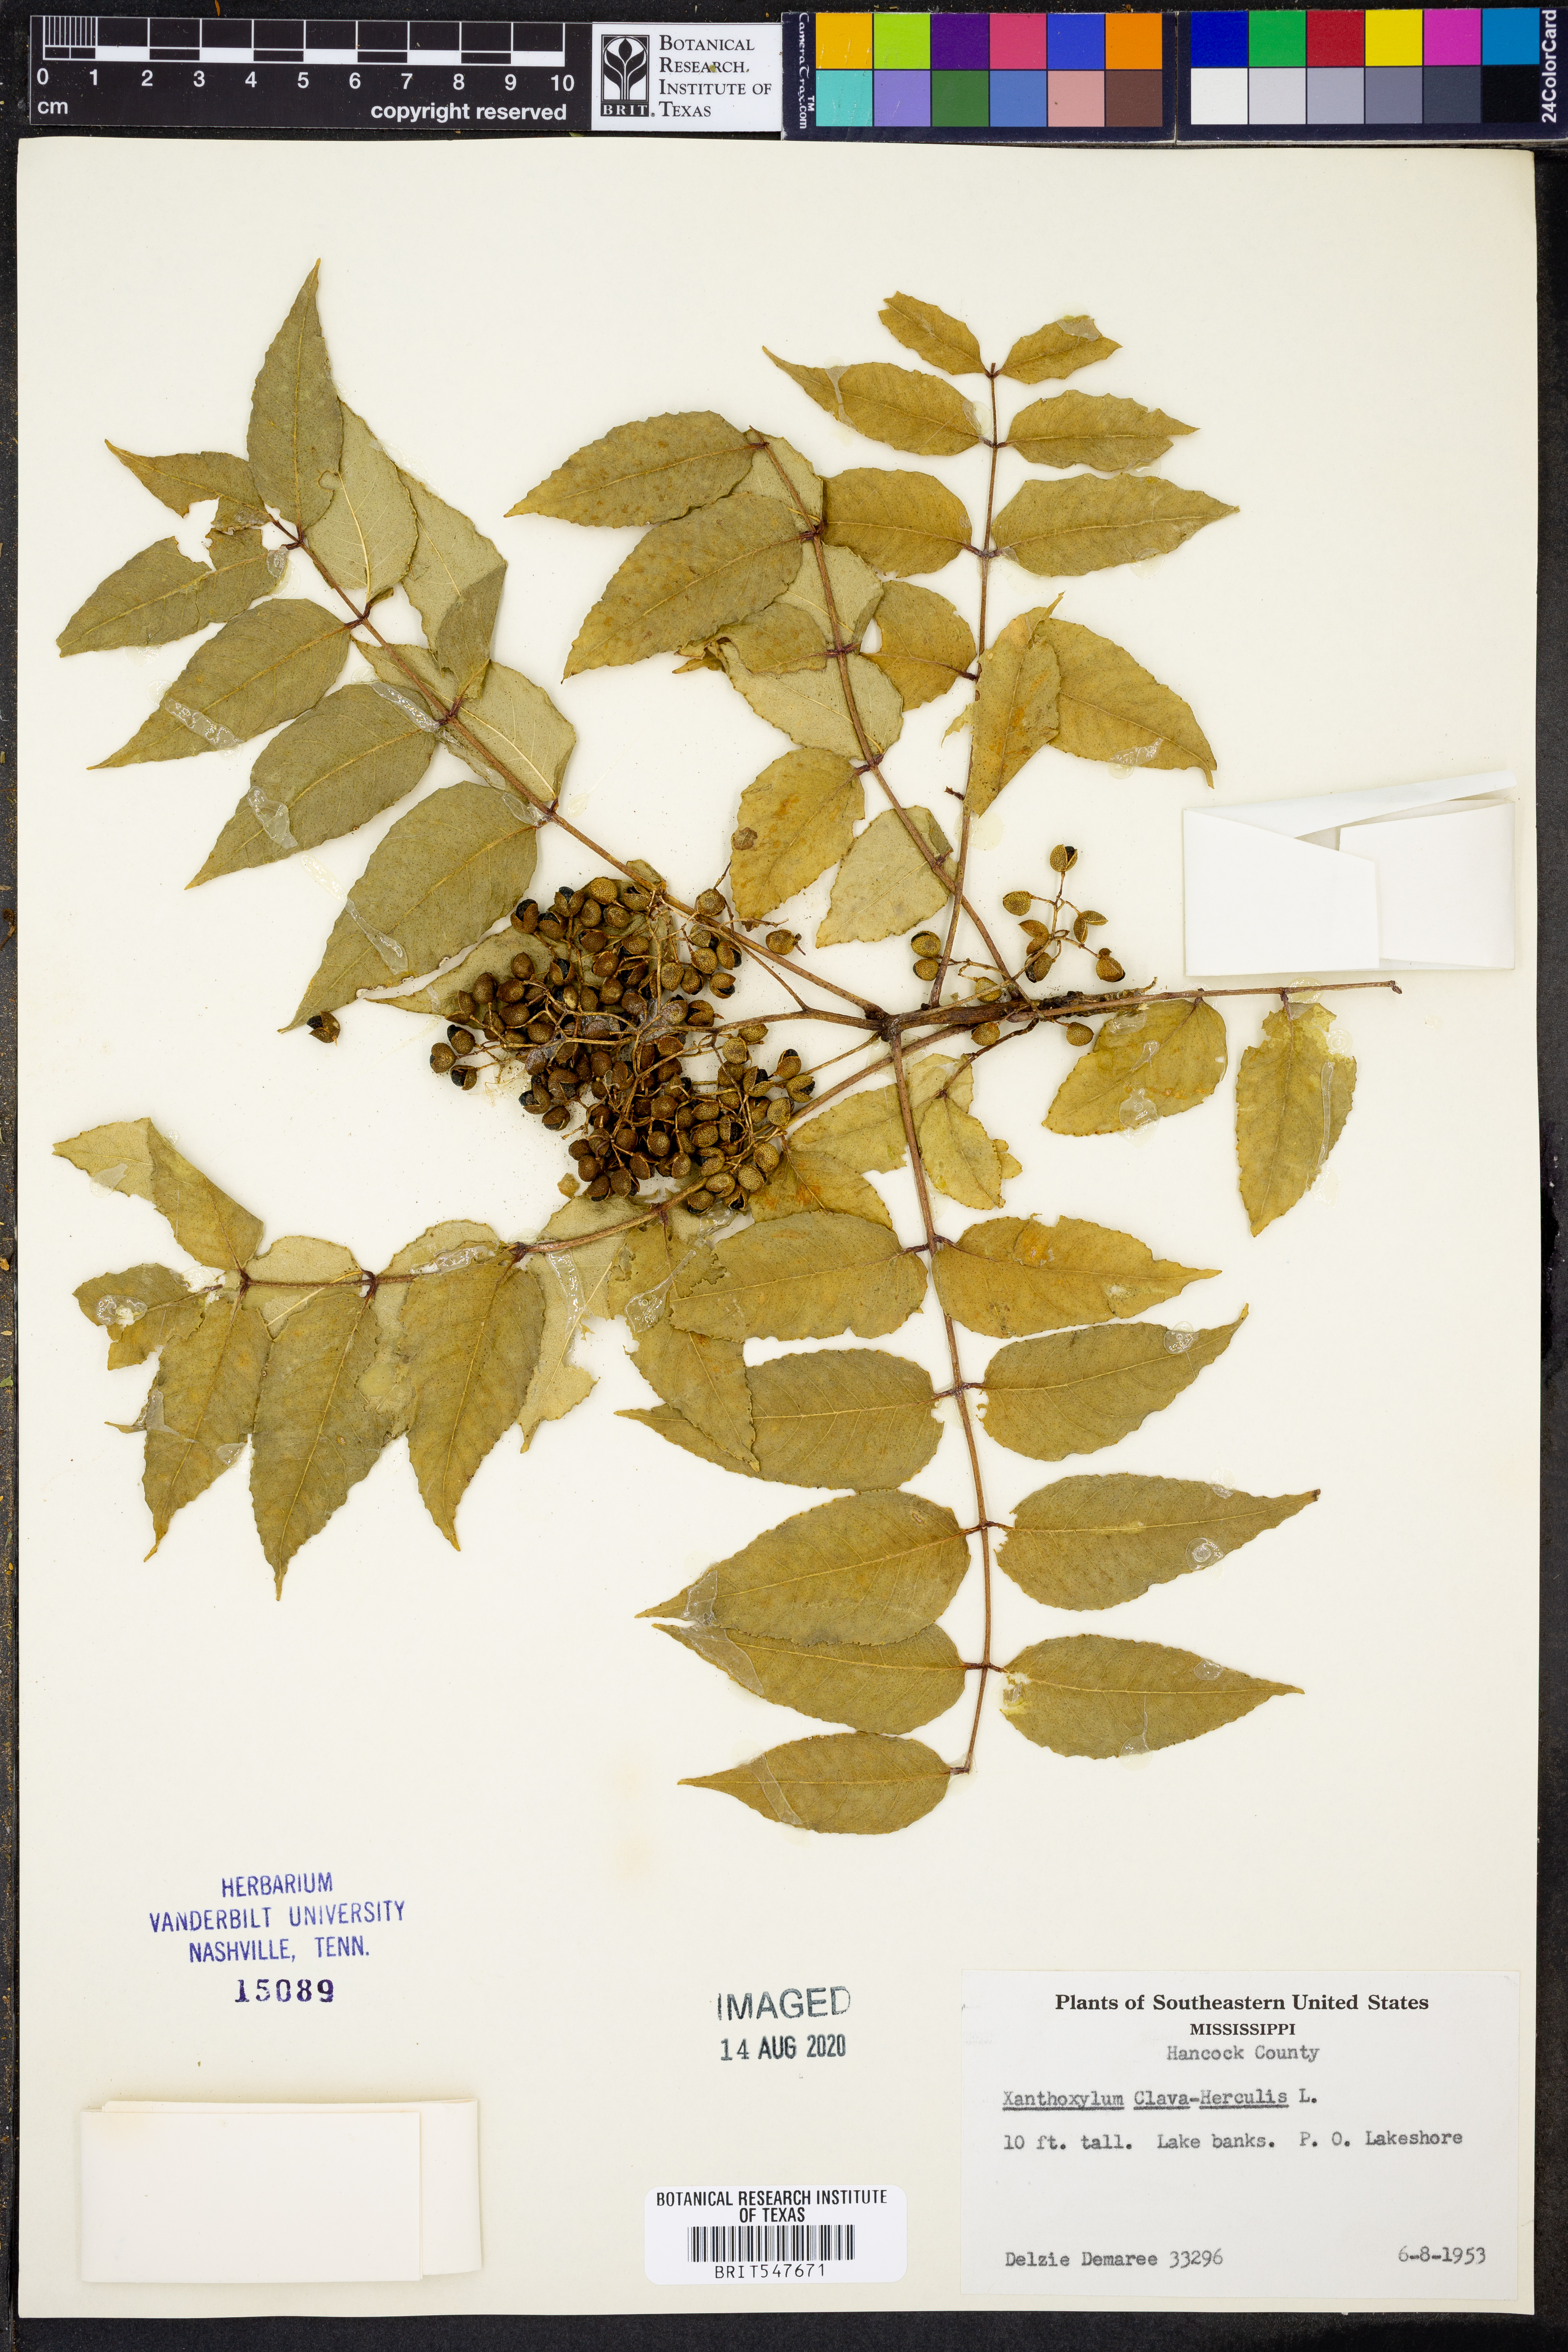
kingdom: Plantae
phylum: Tracheophyta
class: Magnoliopsida
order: Sapindales
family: Rutaceae
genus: Zanthoxylum
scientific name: Zanthoxylum avicennae
